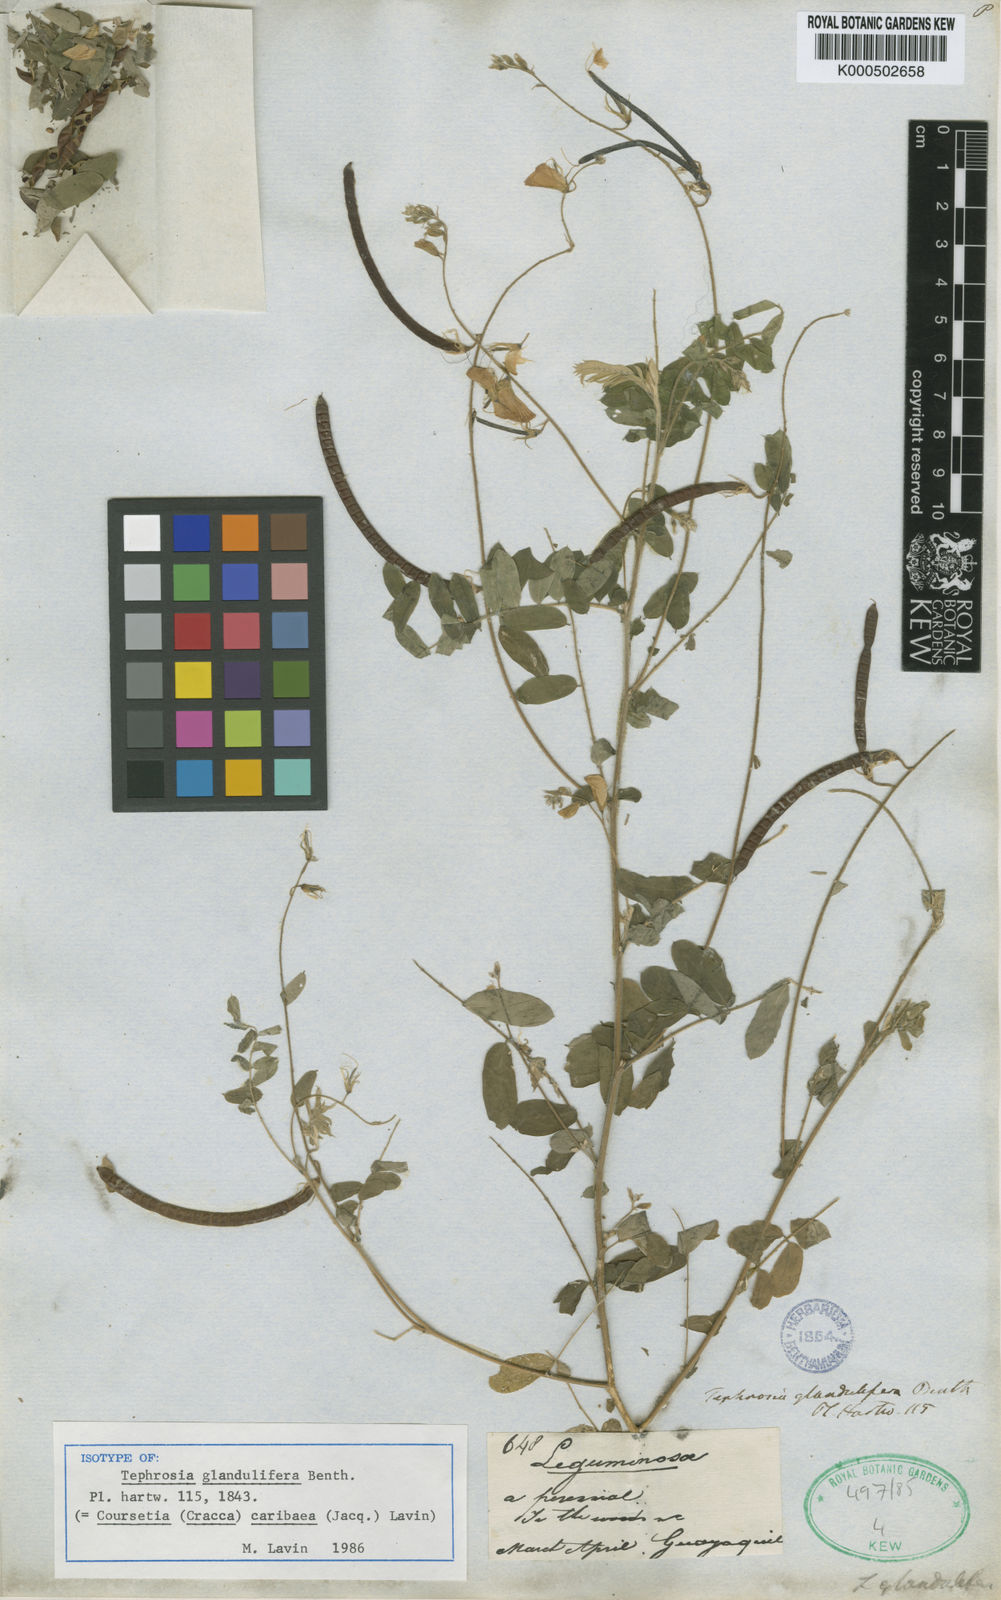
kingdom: Plantae
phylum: Tracheophyta
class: Magnoliopsida
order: Fabales
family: Fabaceae
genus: Coursetia
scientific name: Coursetia caribaea
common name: Anil falso
